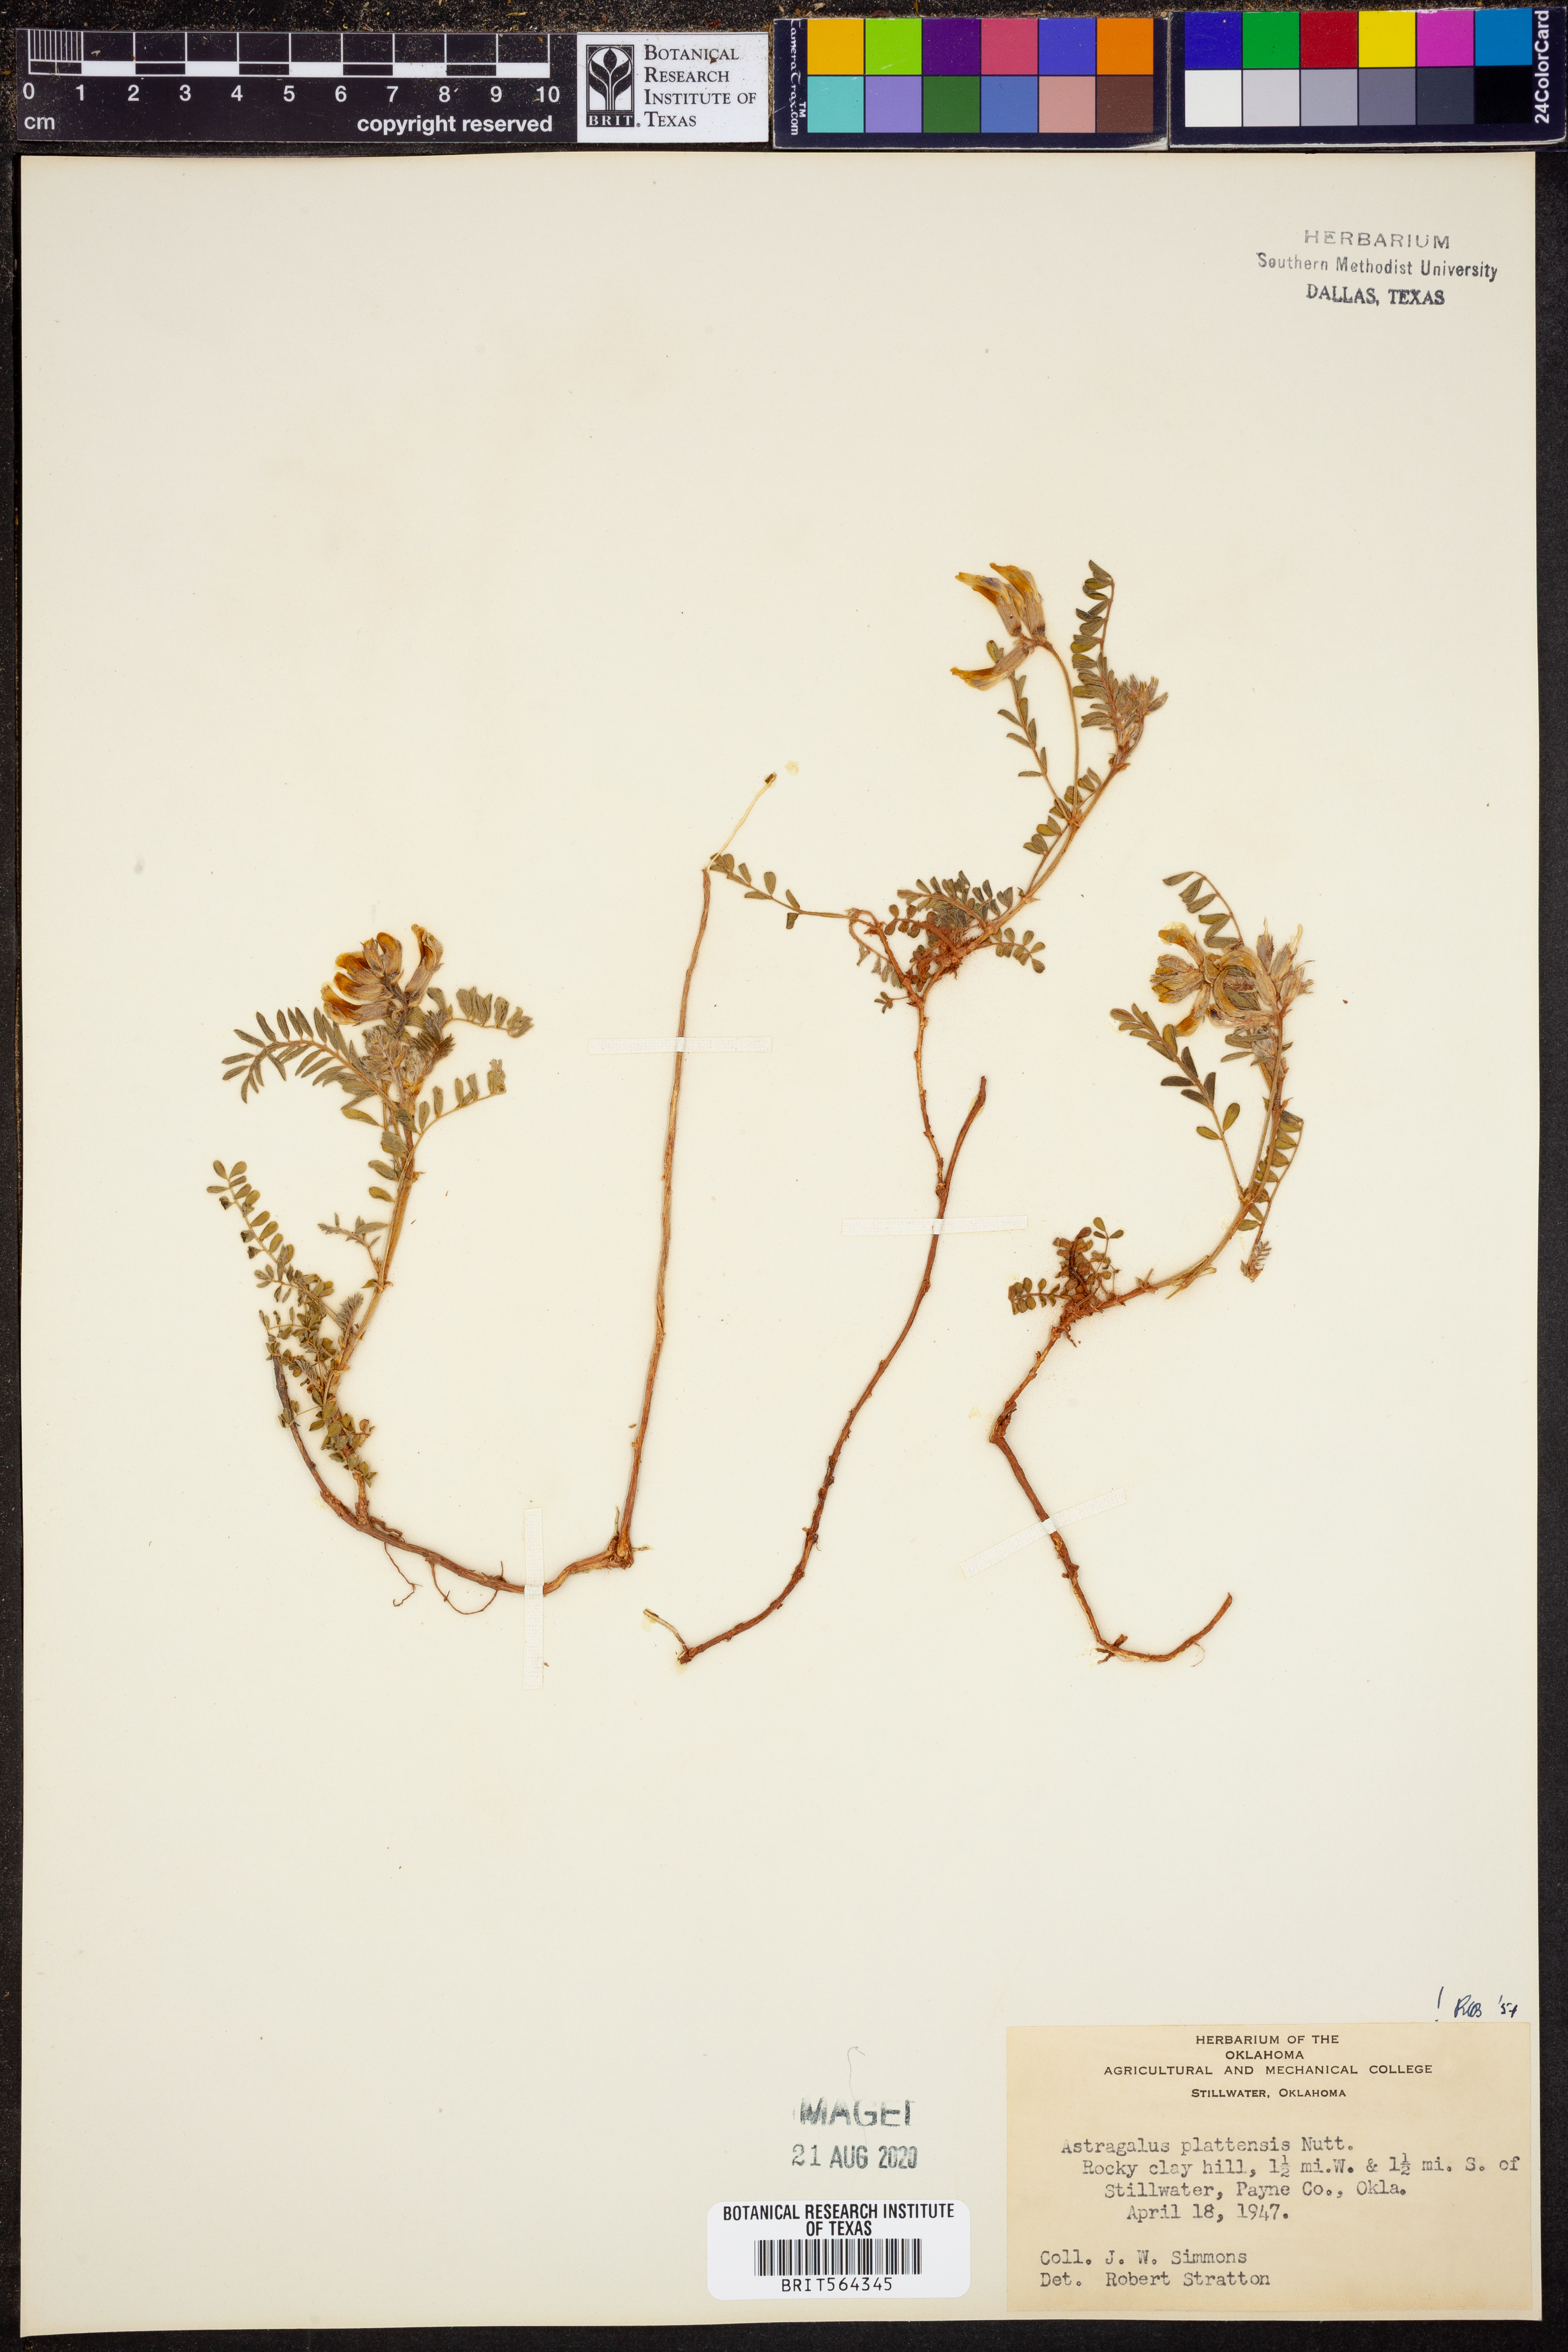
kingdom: Plantae
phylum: Tracheophyta
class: Magnoliopsida
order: Fabales
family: Fabaceae
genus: Astragalus
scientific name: Astragalus plattensis
